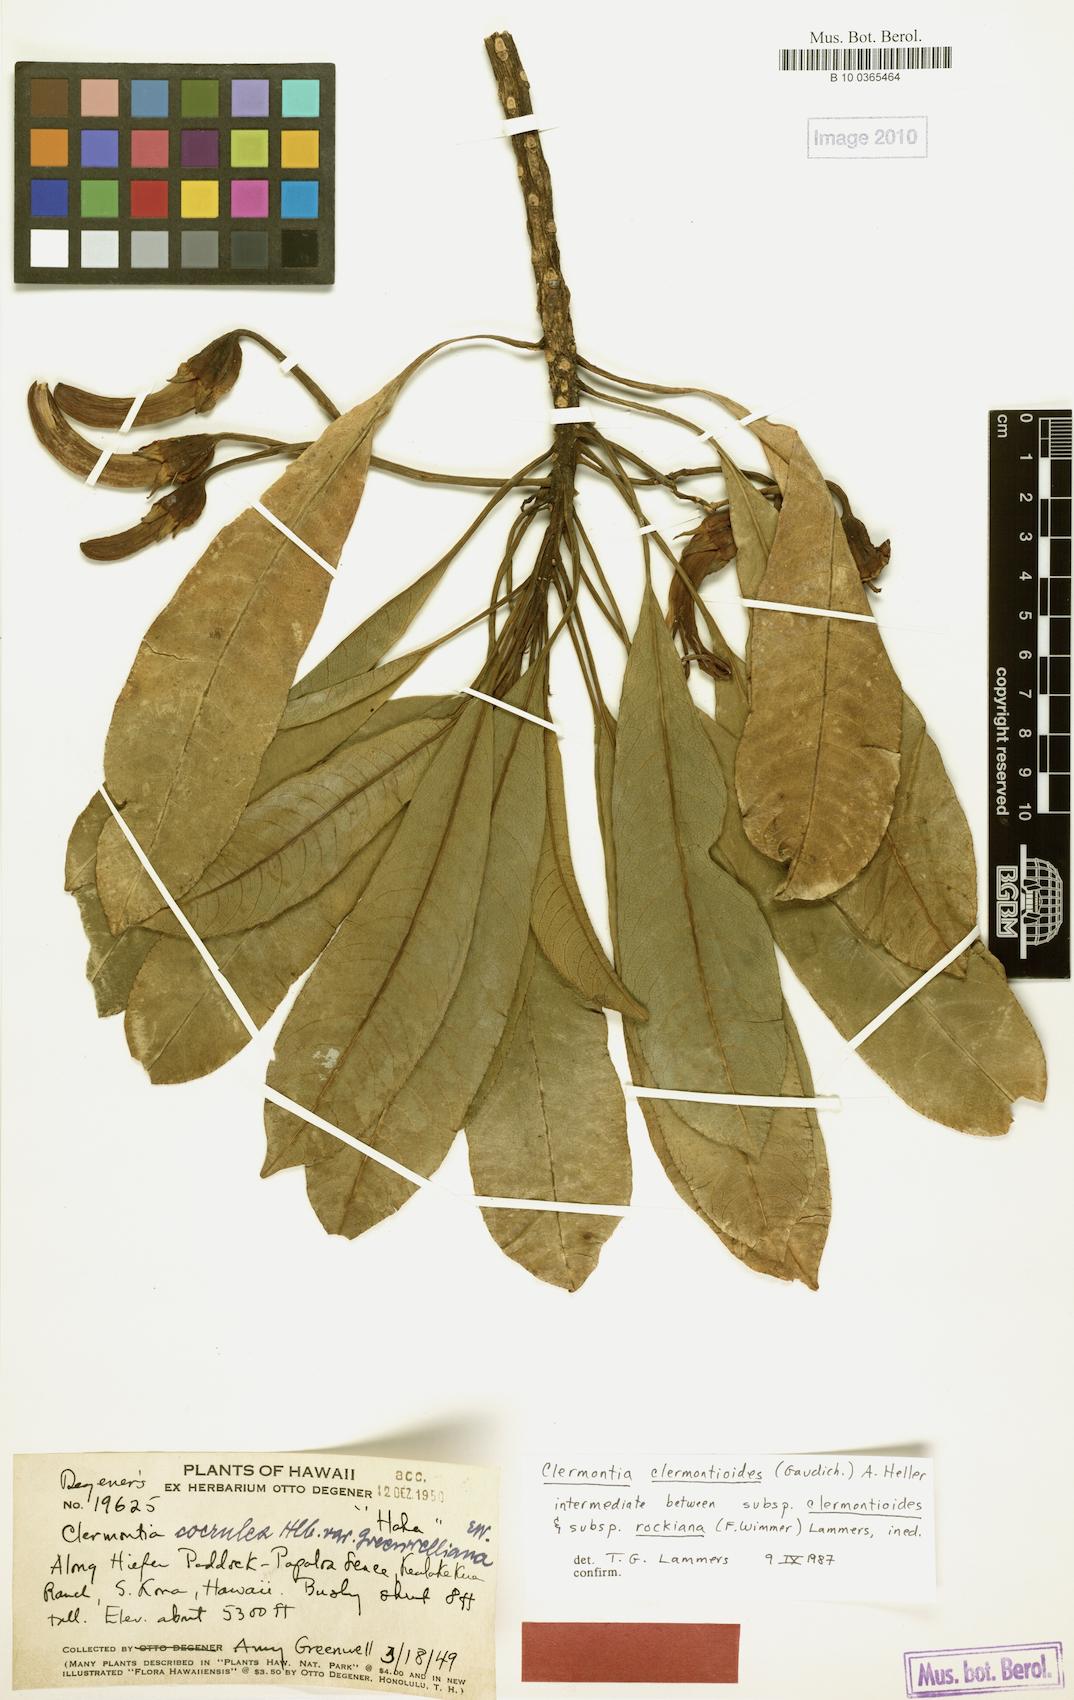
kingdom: Plantae
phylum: Tracheophyta
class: Magnoliopsida
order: Asterales
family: Campanulaceae
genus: Clermontia
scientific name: Clermontia clermontioides
